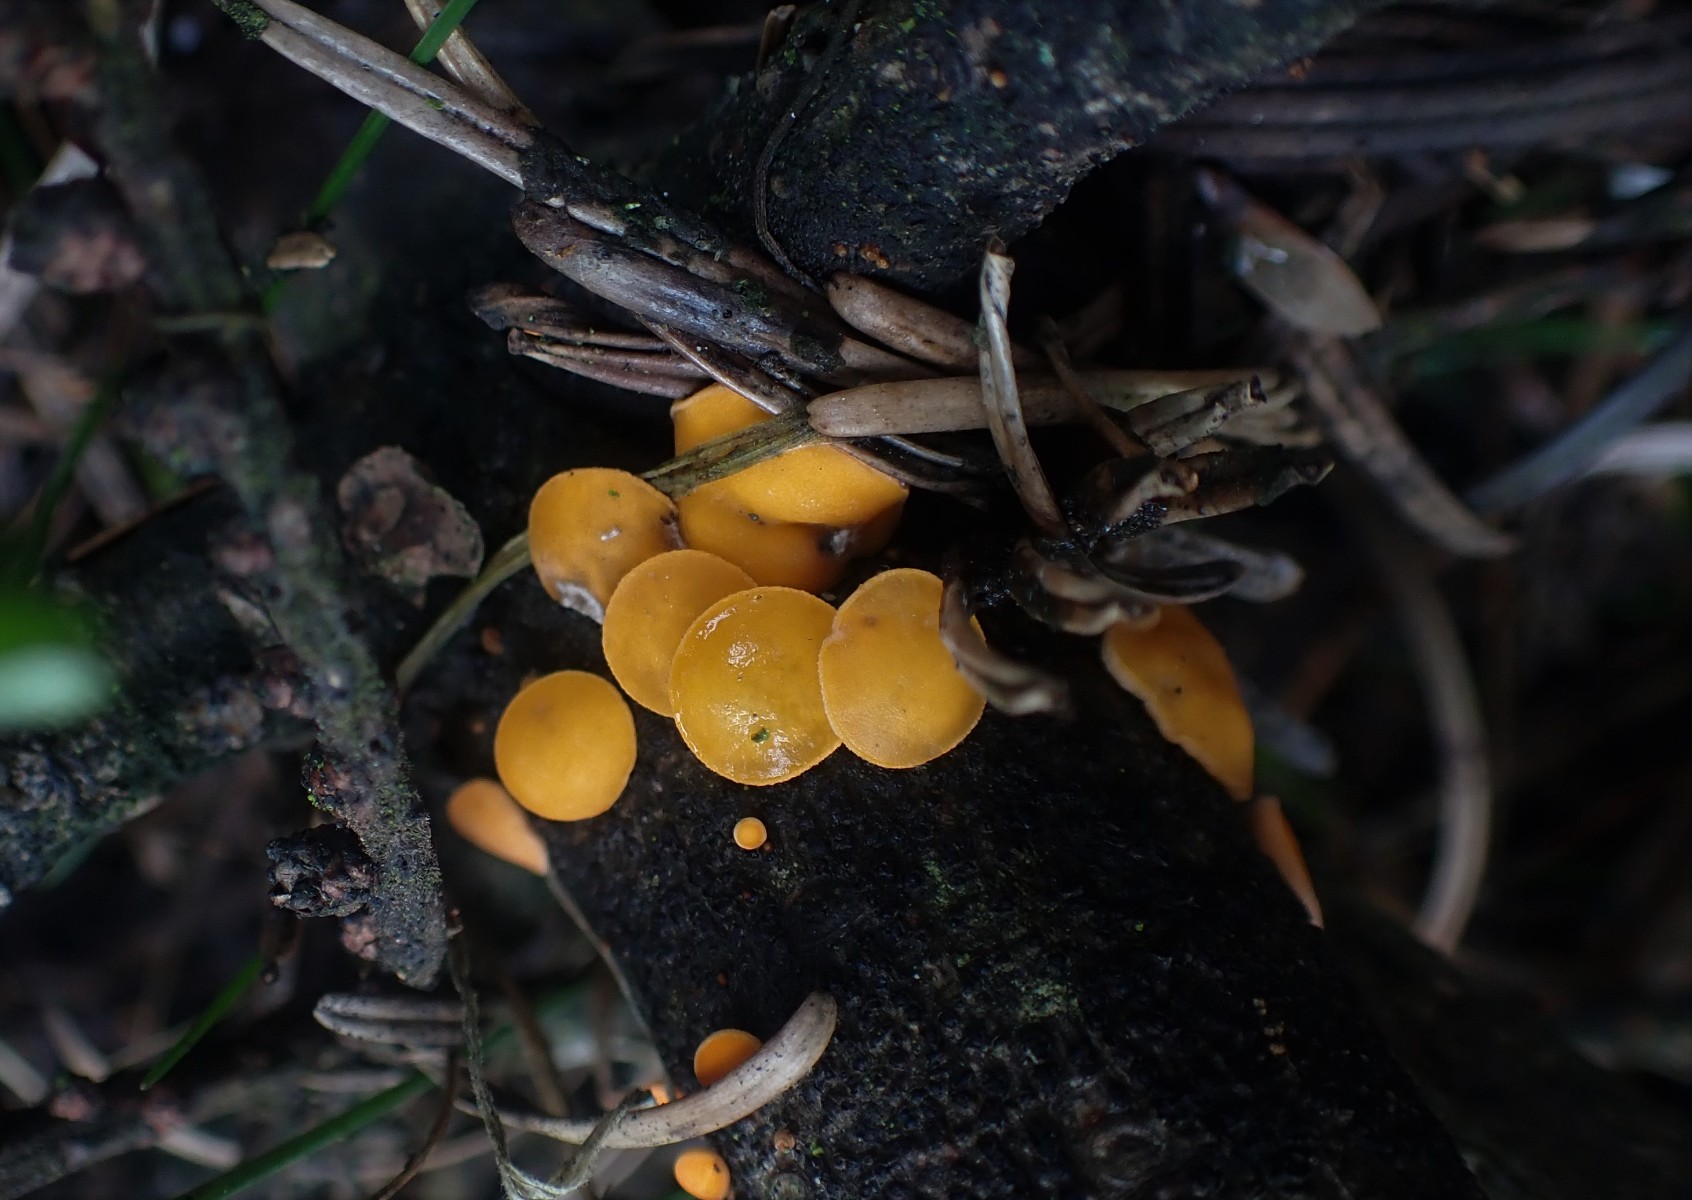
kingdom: Fungi
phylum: Ascomycota
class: Pezizomycetes
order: Pezizales
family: Sarcoscyphaceae
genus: Pithya
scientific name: Pithya vulgaris
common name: stor dukatbæger
